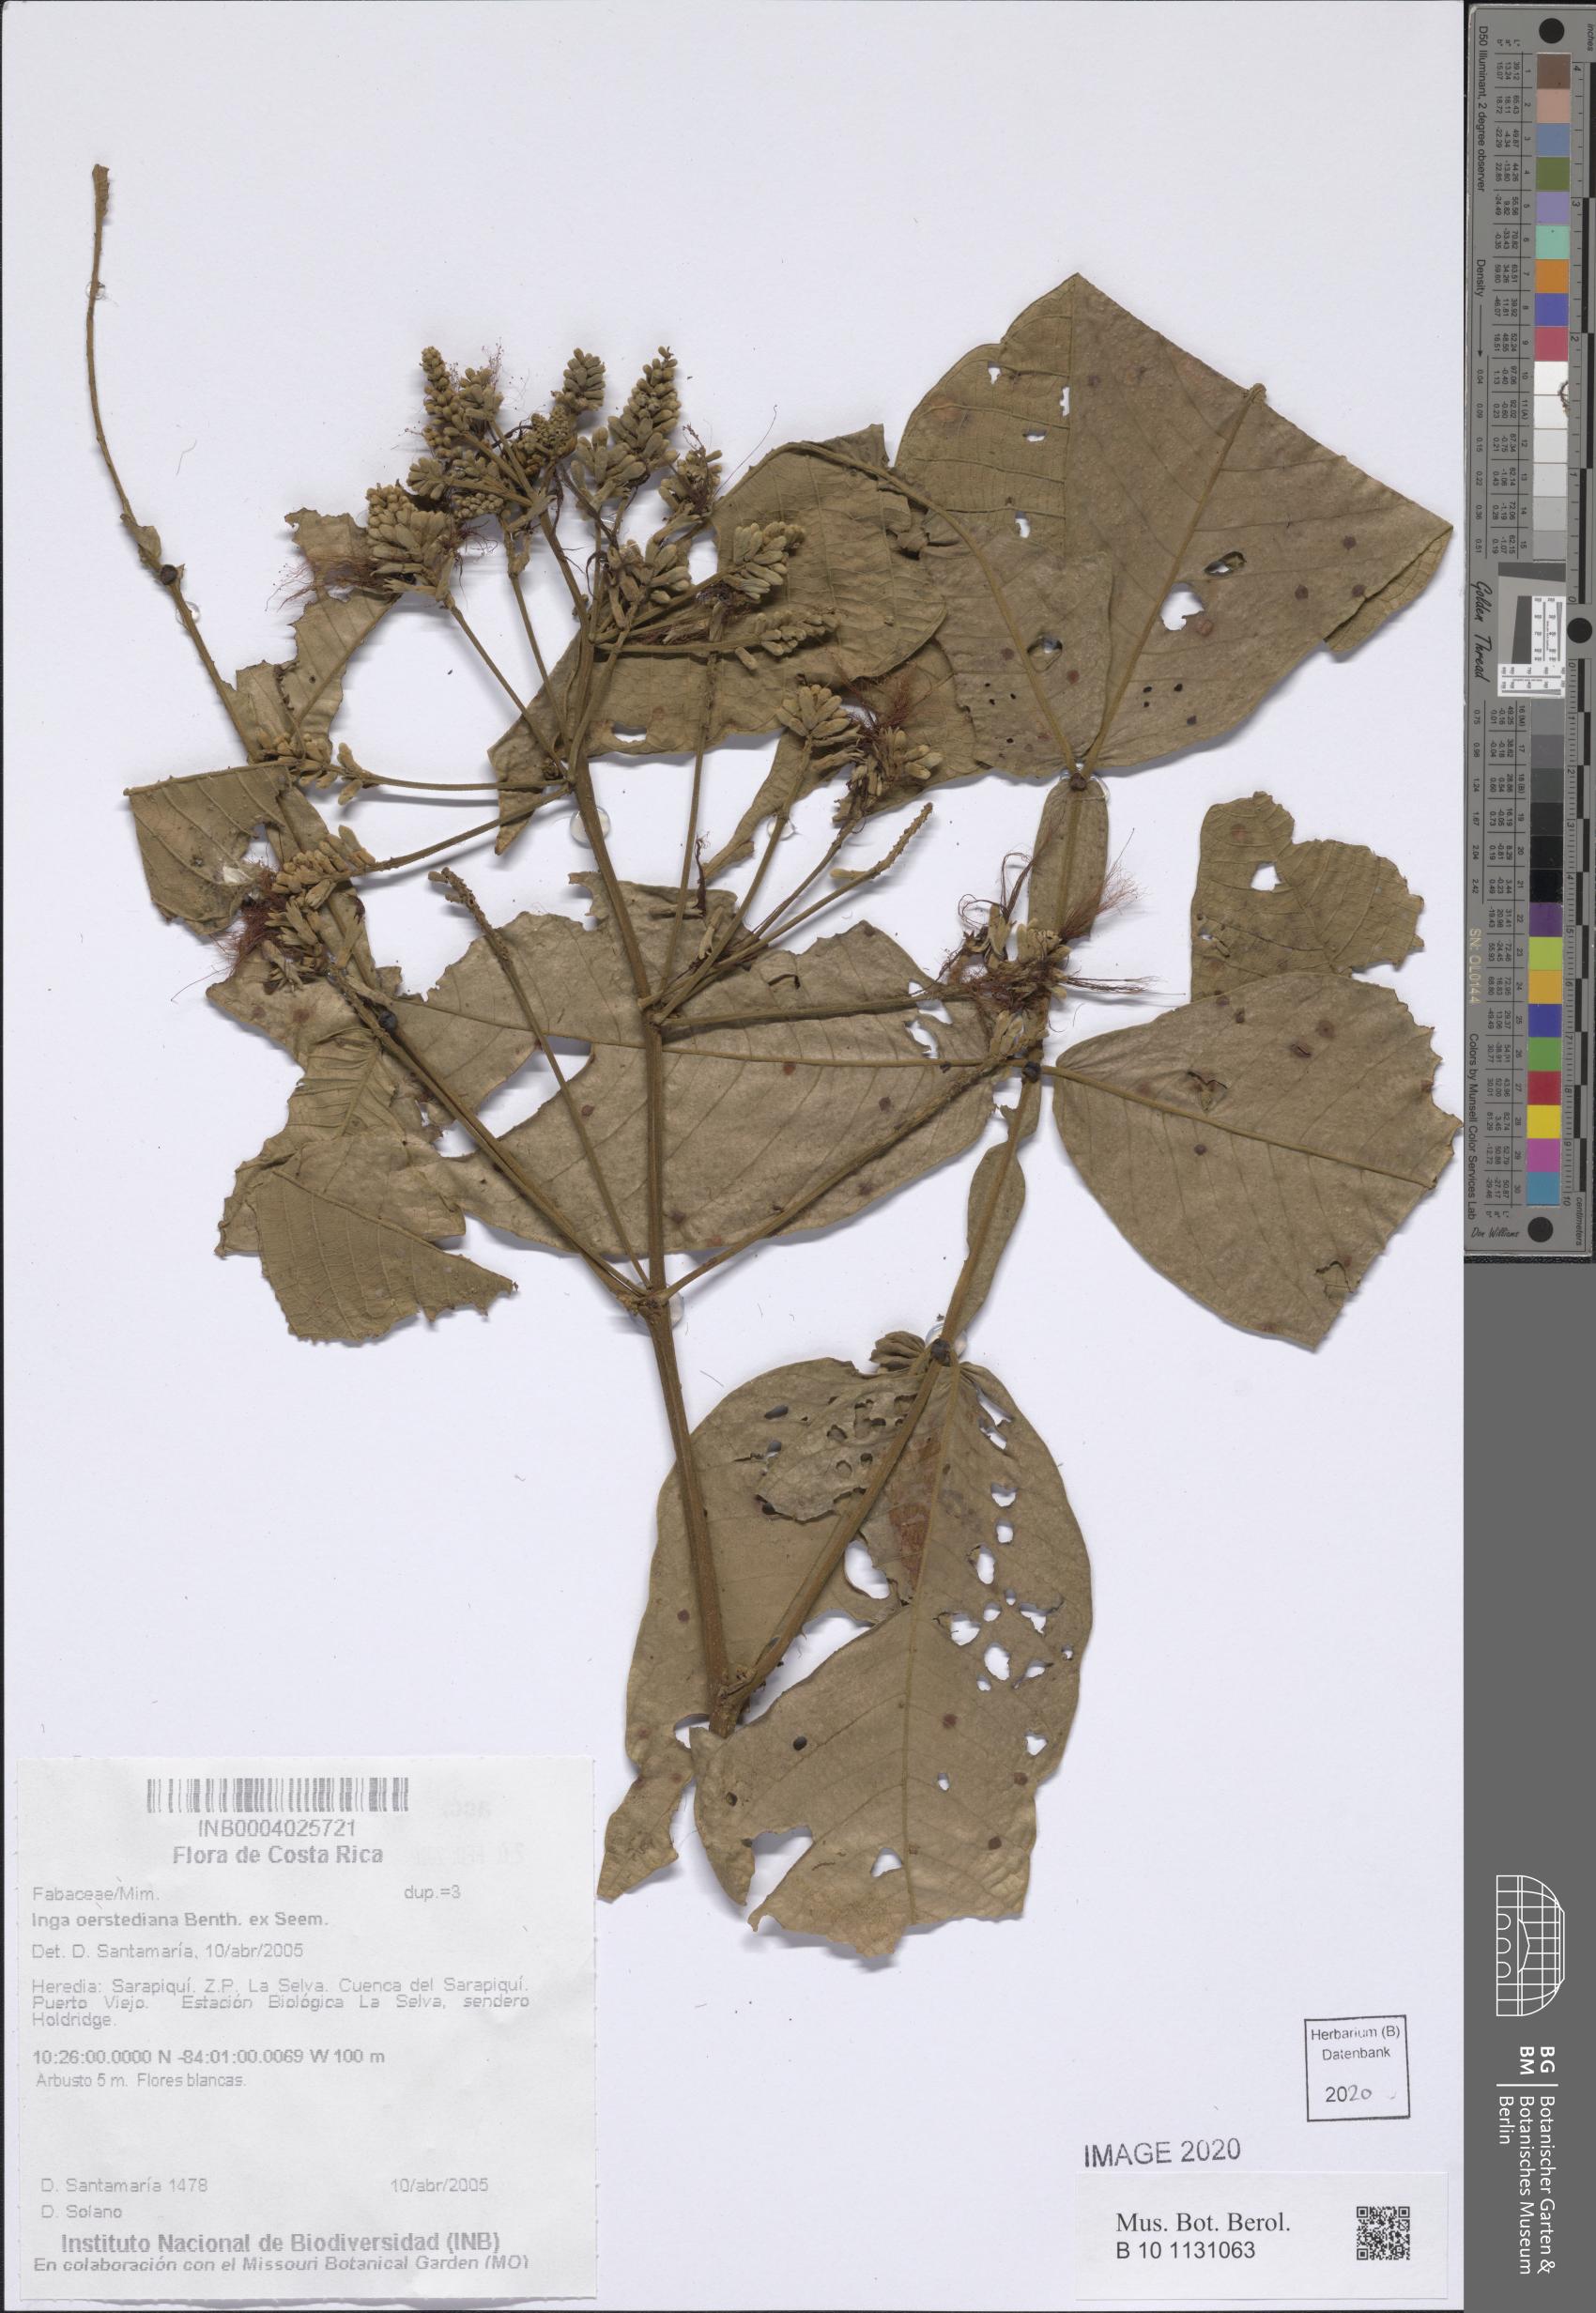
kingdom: Plantae
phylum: Tracheophyta
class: Magnoliopsida
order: Fabales
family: Fabaceae
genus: Inga
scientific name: Inga oerstediana
